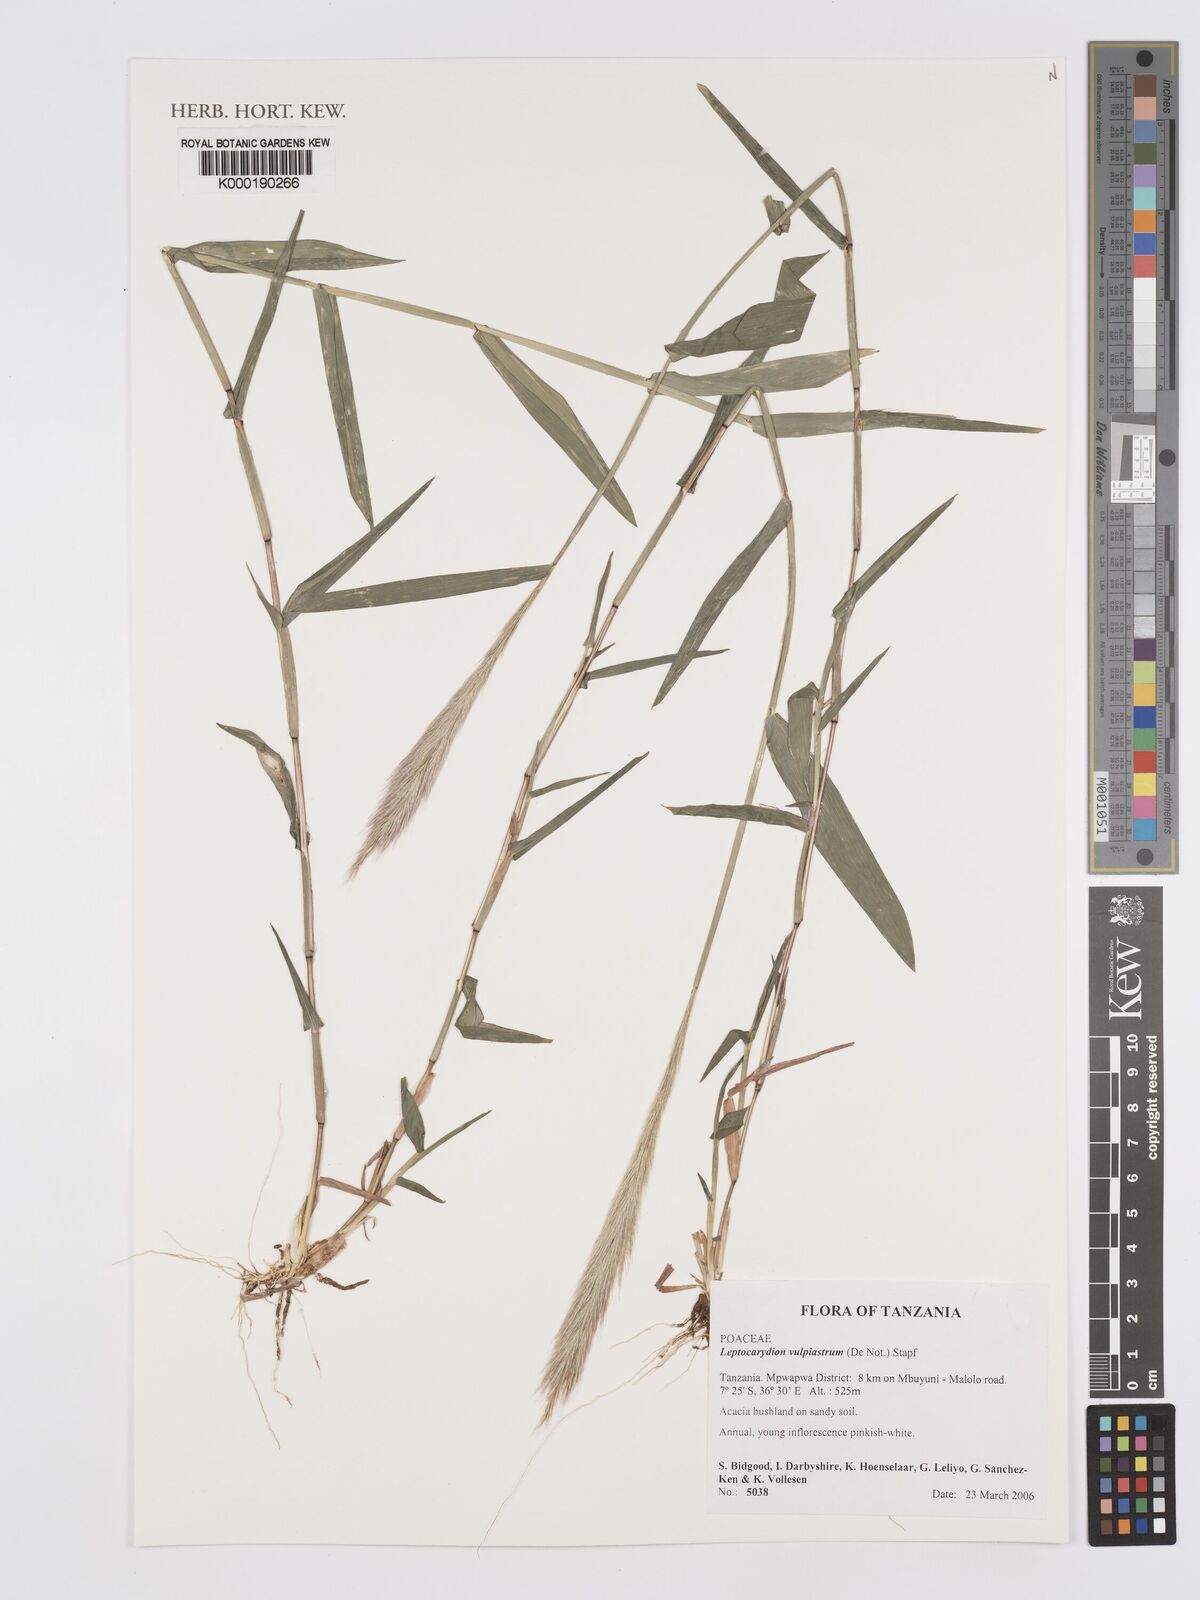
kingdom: Plantae
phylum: Tracheophyta
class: Liliopsida
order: Poales
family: Poaceae
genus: Leptocarydion
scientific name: Leptocarydion vulpiastrum
